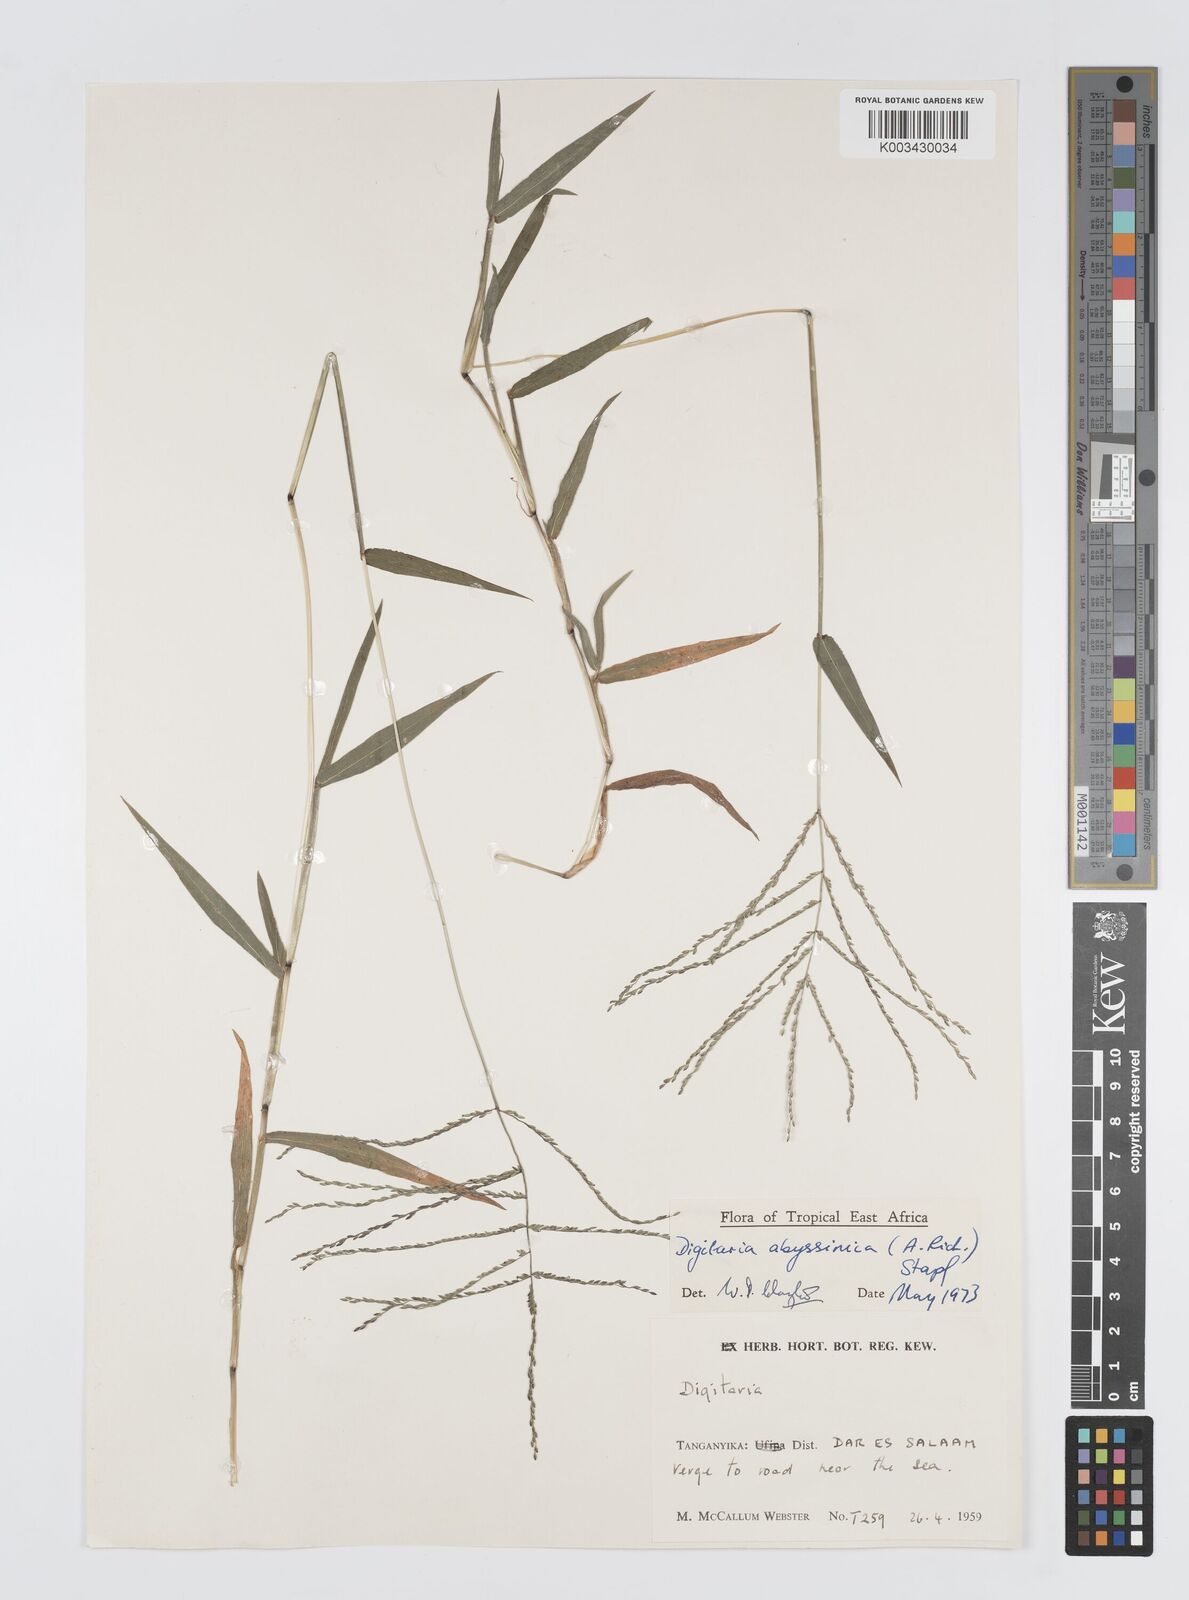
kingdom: Plantae
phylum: Tracheophyta
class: Liliopsida
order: Poales
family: Poaceae
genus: Digitaria
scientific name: Digitaria abyssinica
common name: African couchgrass
